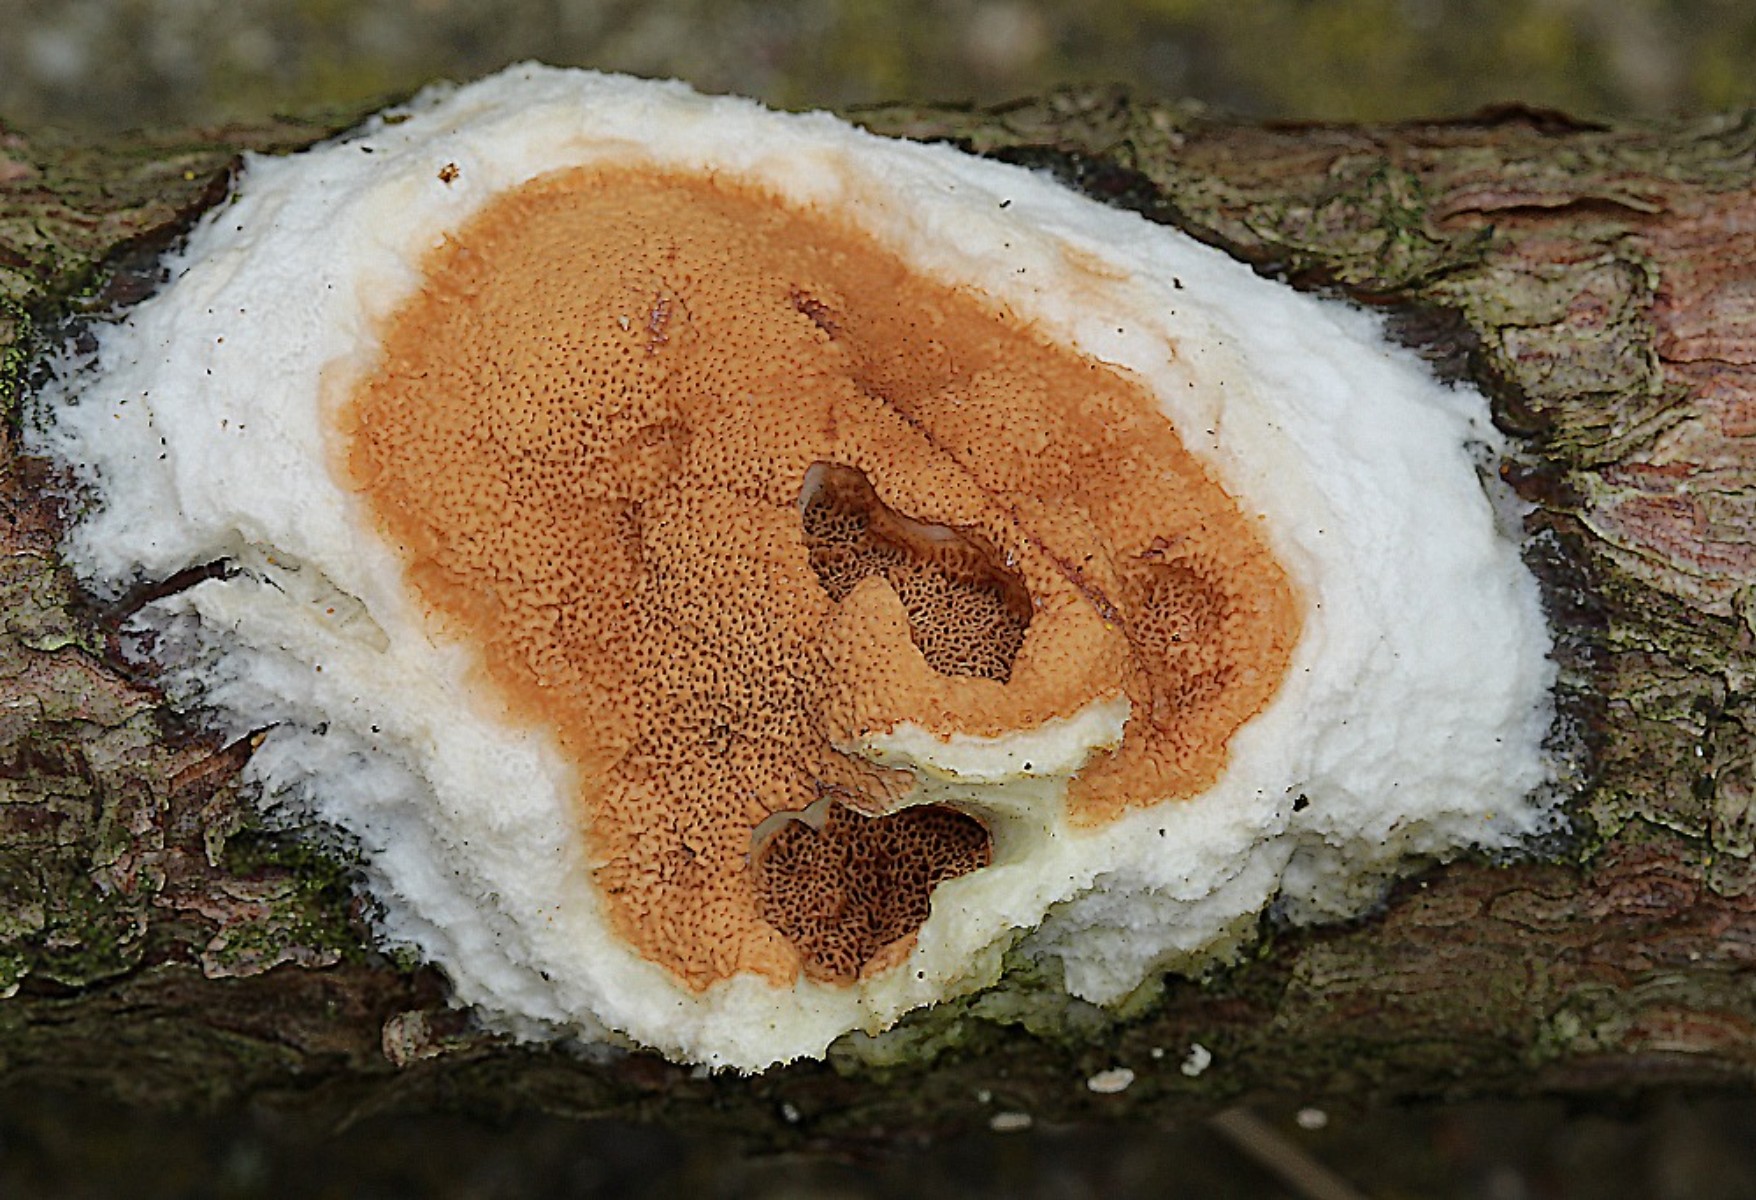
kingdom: Fungi
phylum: Basidiomycota
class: Agaricomycetes
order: Polyporales
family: Irpicaceae
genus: Meruliopsis
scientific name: Meruliopsis taxicola
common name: purpurbrun foldporesvamp
